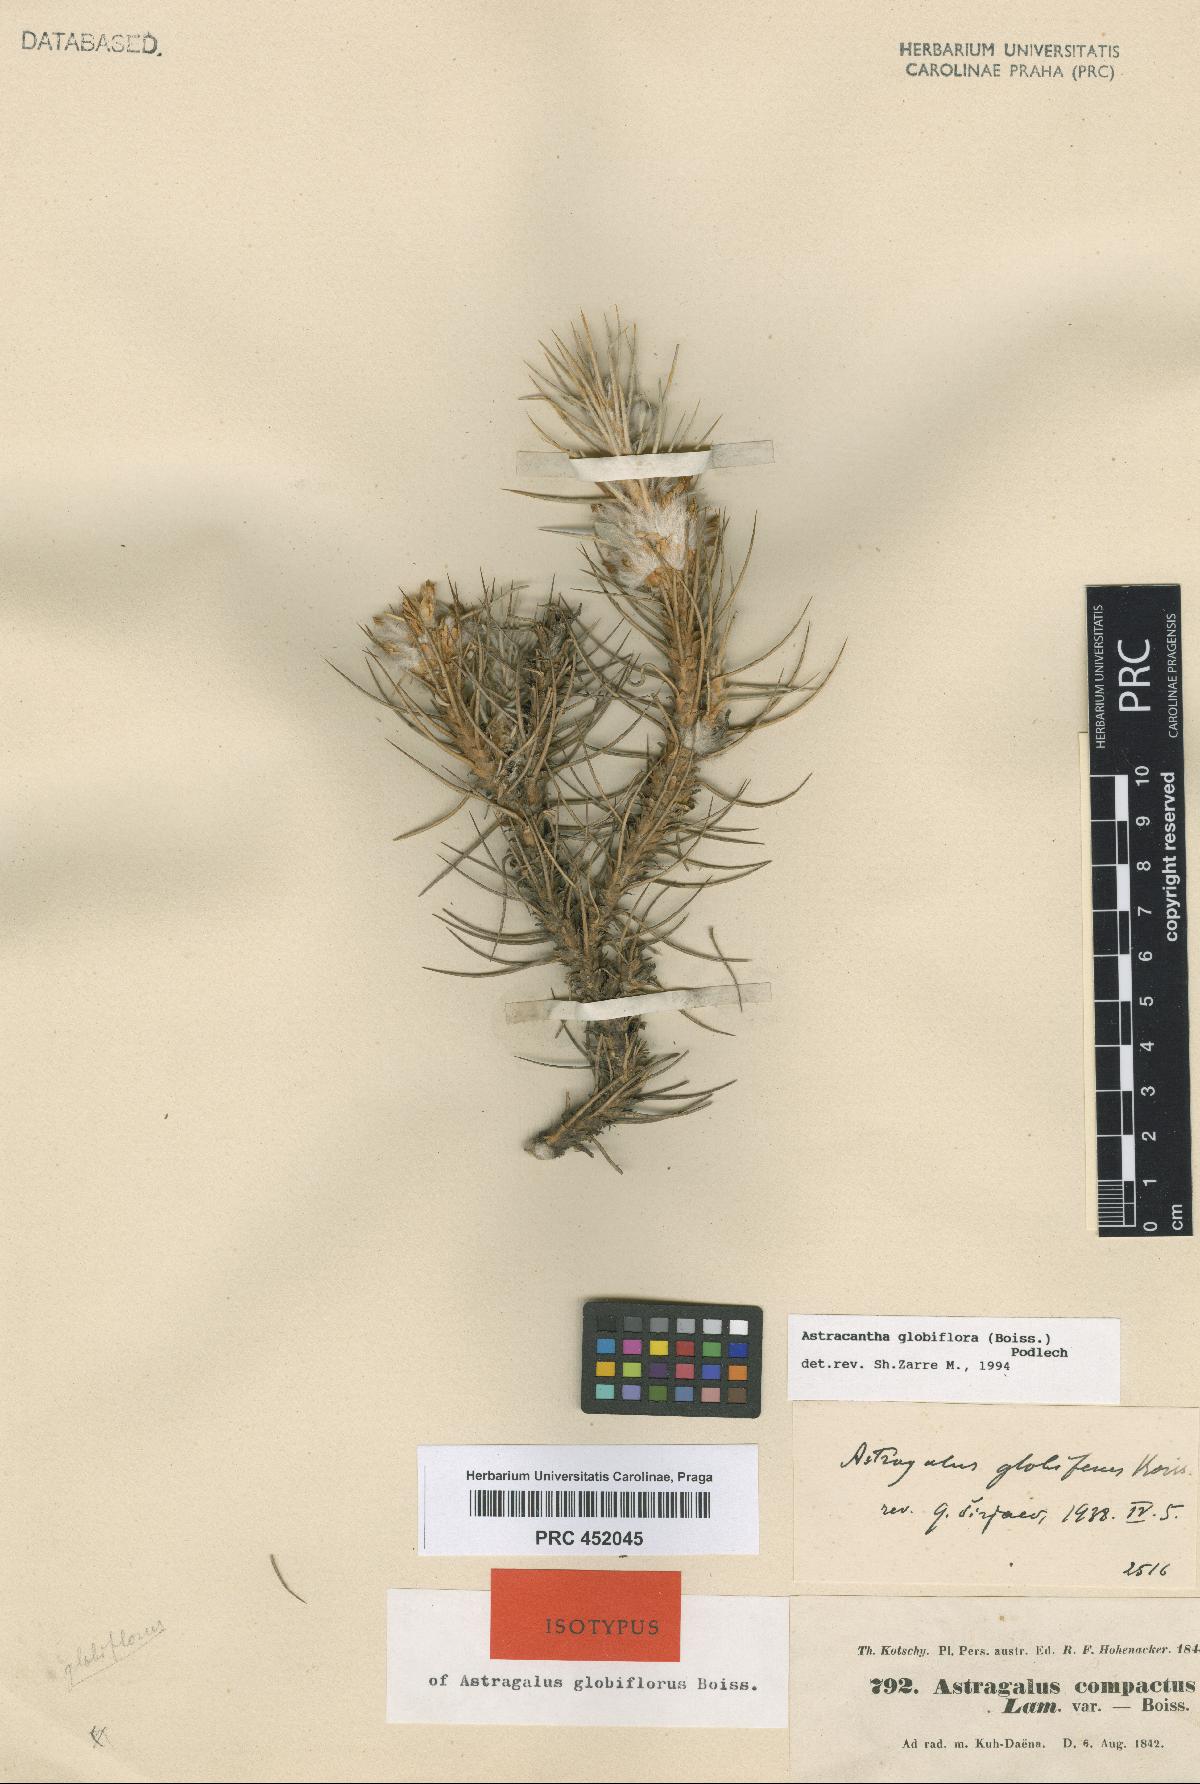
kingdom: Plantae
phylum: Tracheophyta
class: Magnoliopsida
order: Fabales
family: Fabaceae
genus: Astragalus
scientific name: Astragalus globiflorus
